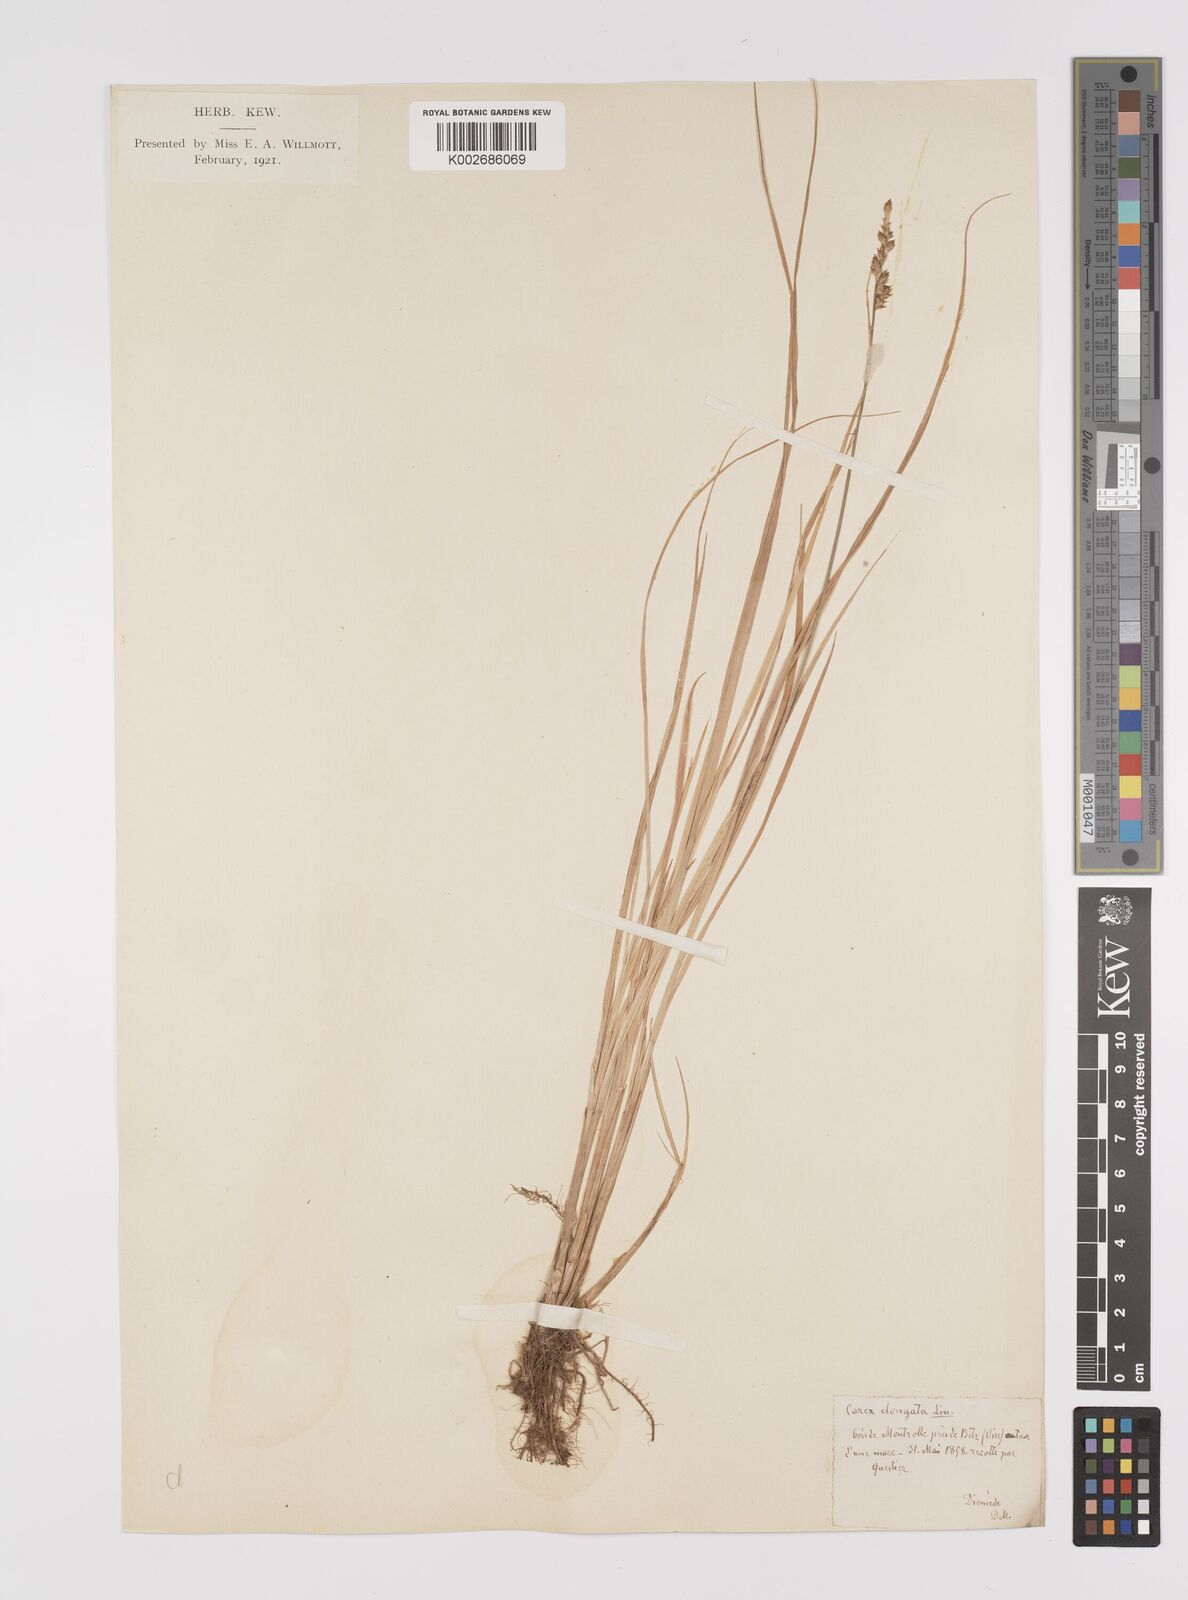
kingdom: Plantae
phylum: Tracheophyta
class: Liliopsida
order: Poales
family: Cyperaceae
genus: Carex
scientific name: Carex elongata
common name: Elongated sedge
